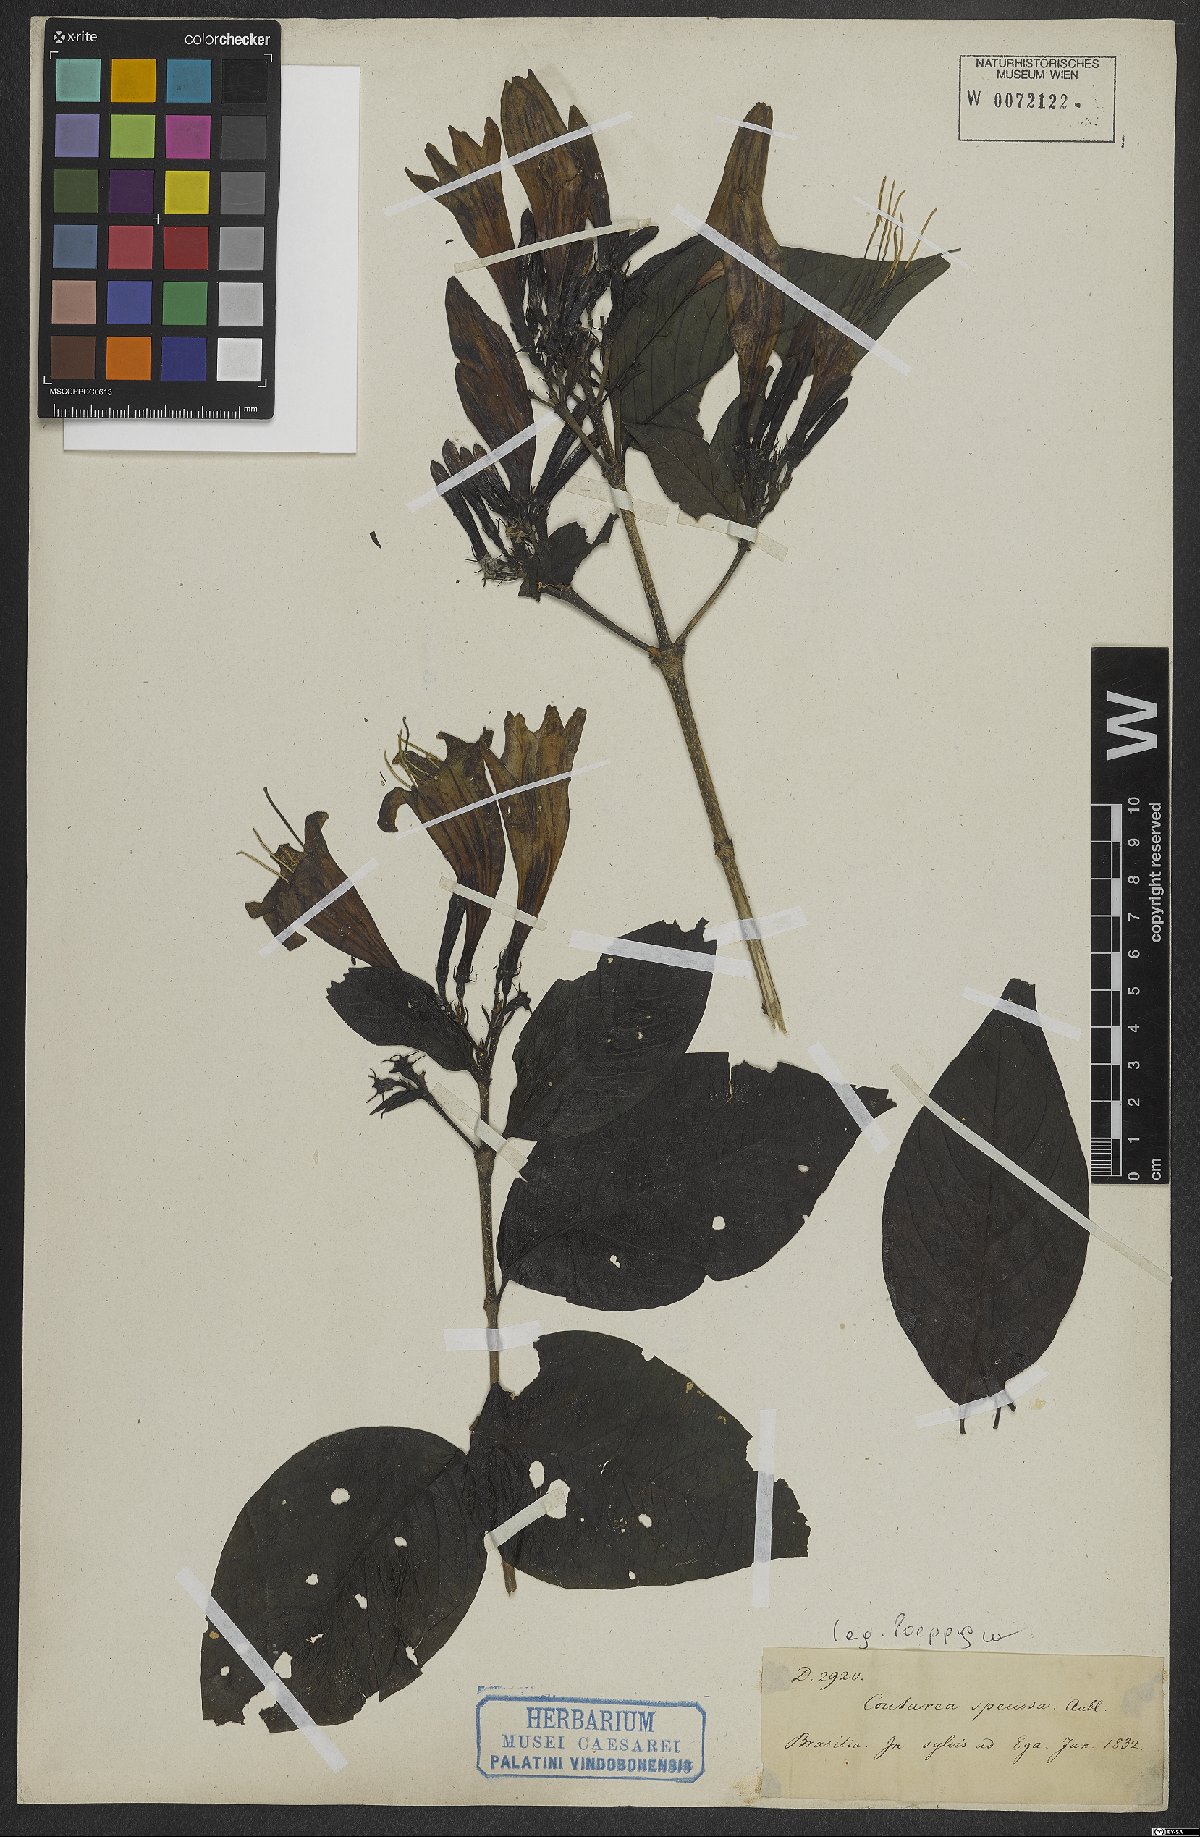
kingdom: Plantae
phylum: Tracheophyta
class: Magnoliopsida
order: Gentianales
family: Rubiaceae
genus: Coutarea
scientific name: Coutarea hexandra
